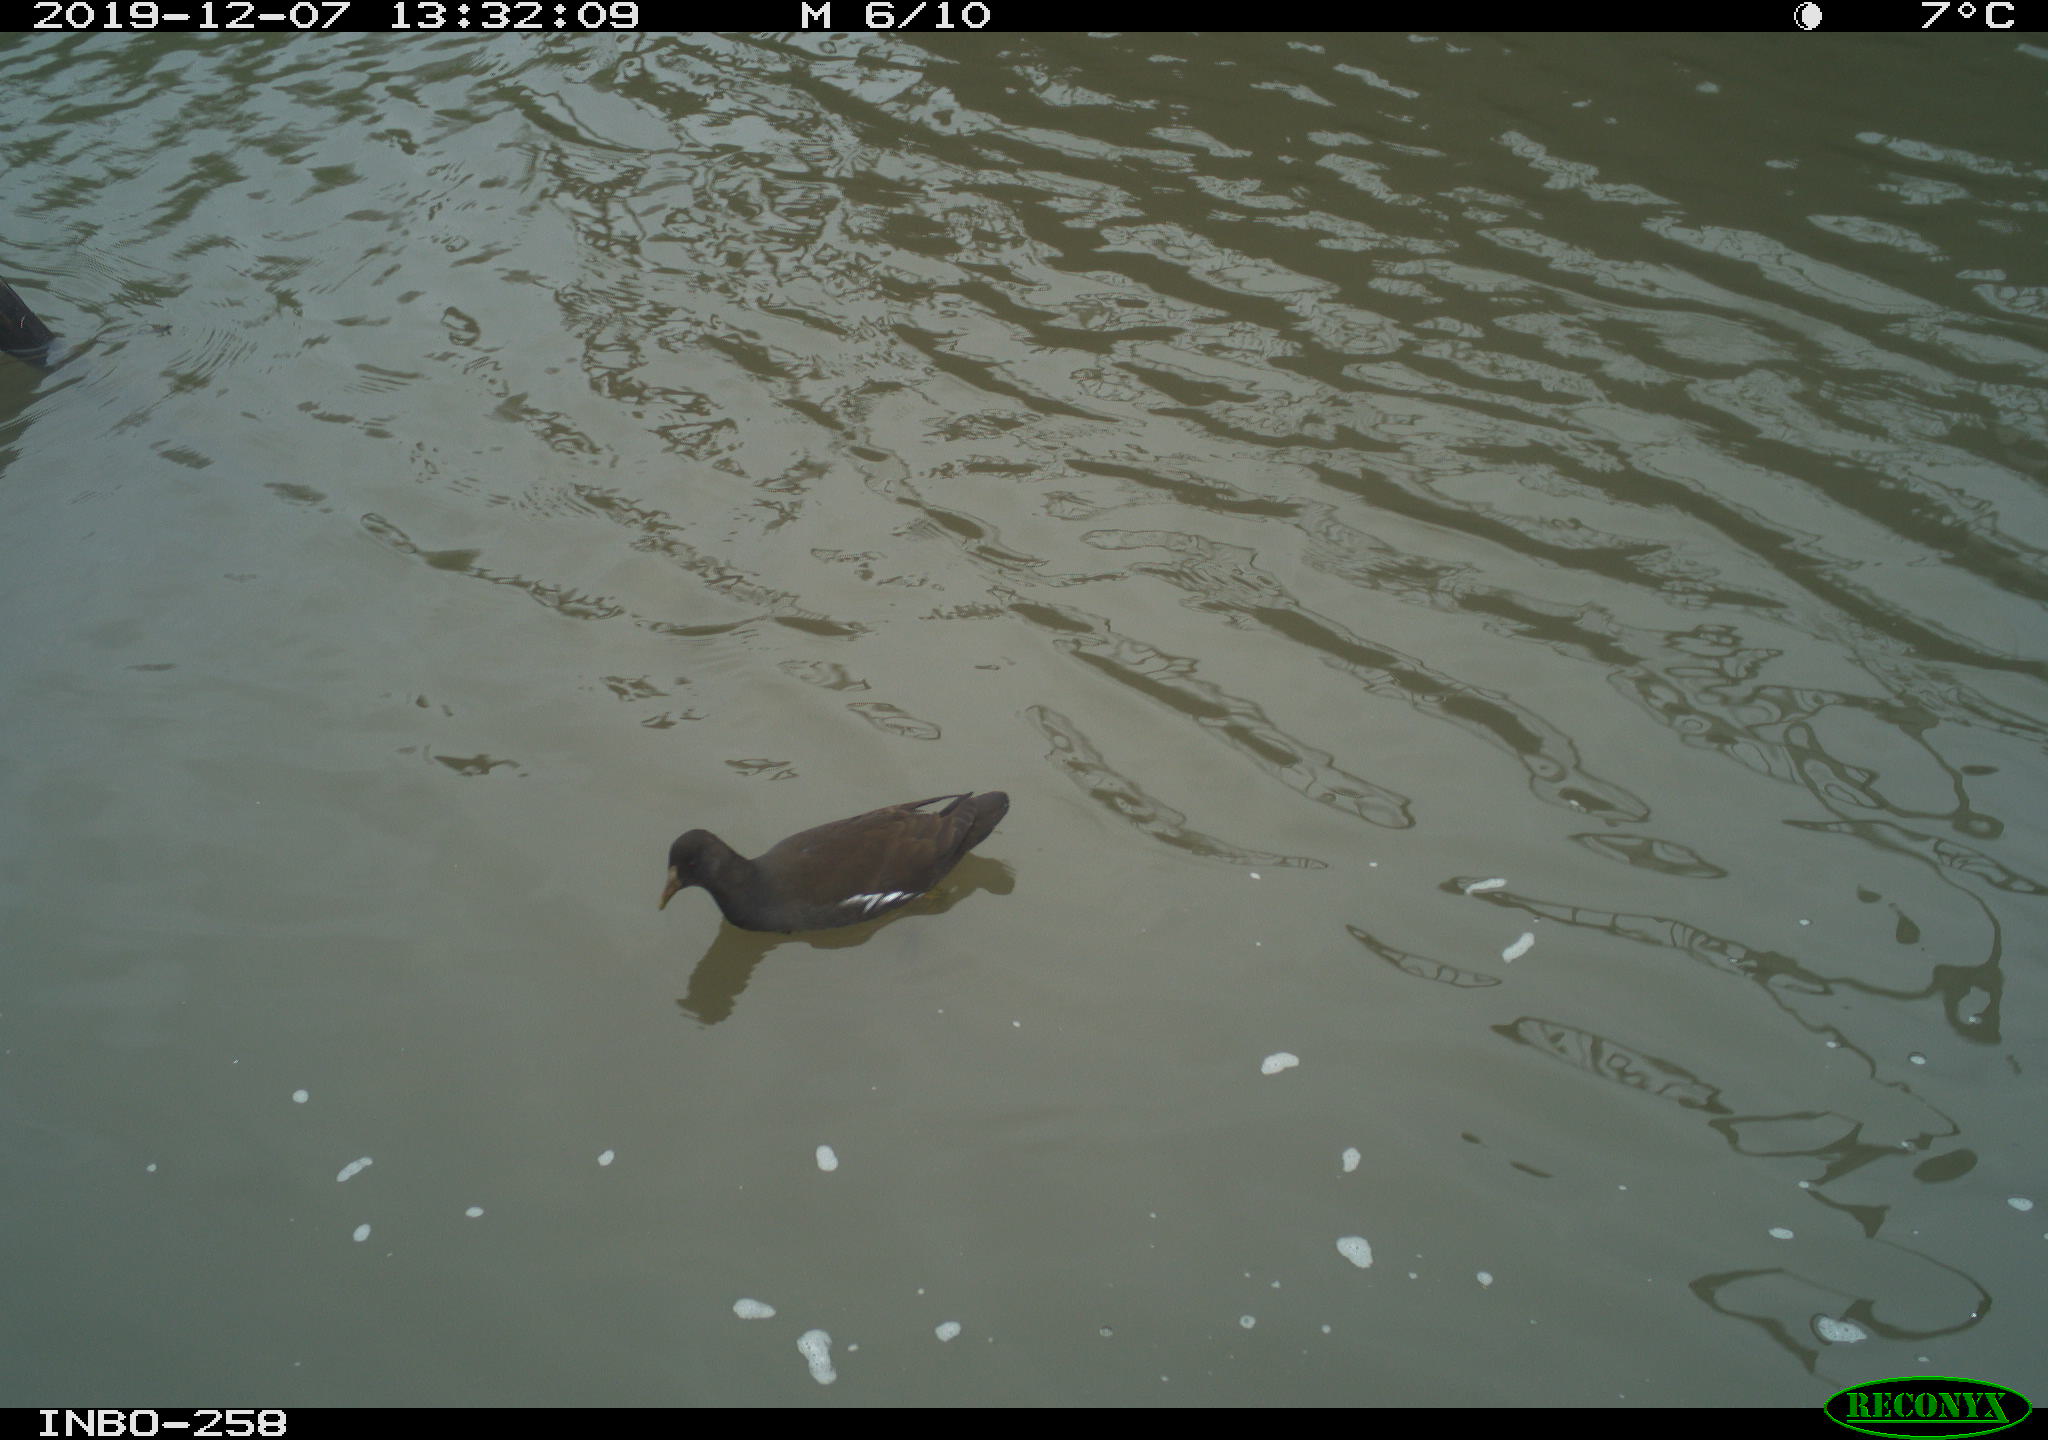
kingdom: Animalia
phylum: Chordata
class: Aves
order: Gruiformes
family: Rallidae
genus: Gallinula
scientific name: Gallinula chloropus
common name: Common moorhen
